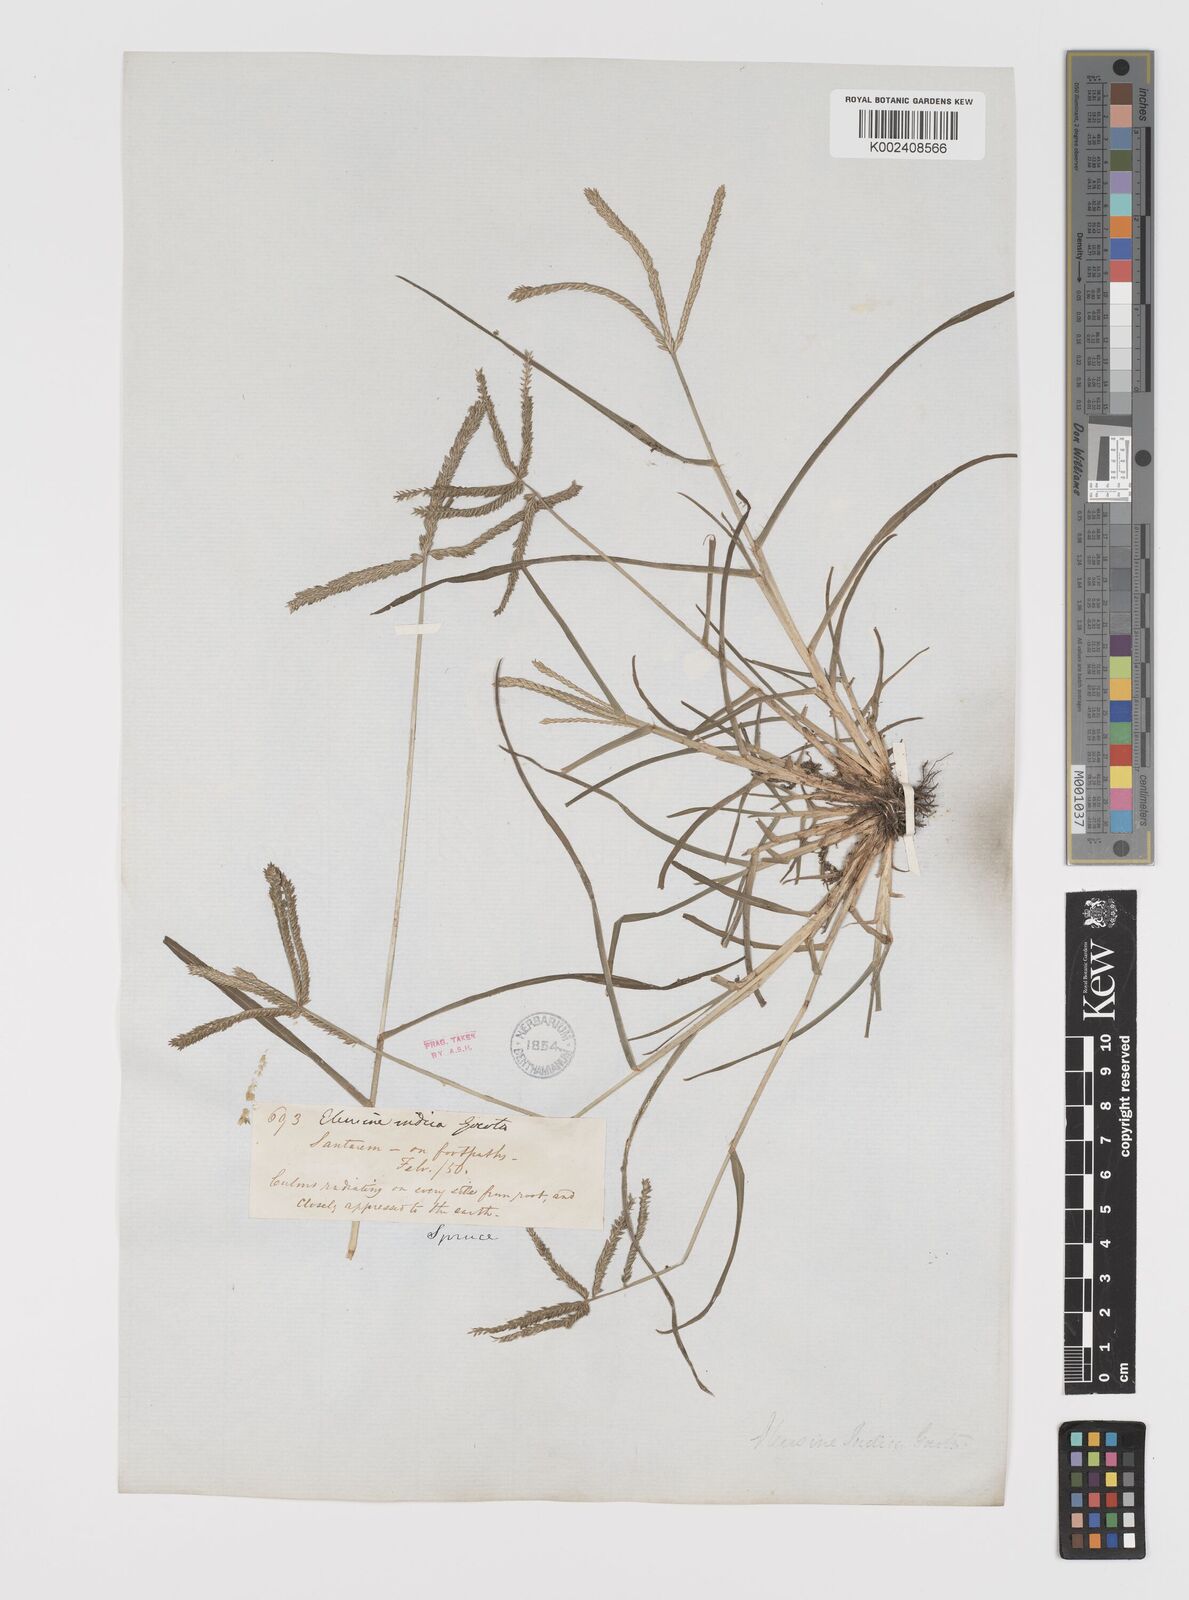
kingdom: Plantae
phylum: Tracheophyta
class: Liliopsida
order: Poales
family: Poaceae
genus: Eleusine
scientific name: Eleusine indica
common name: Yard-grass
